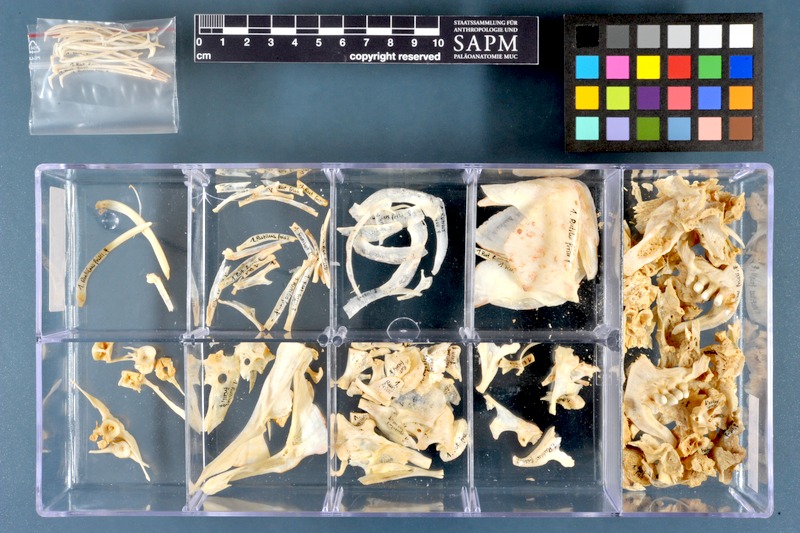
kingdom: Animalia
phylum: Chordata
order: Cypriniformes
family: Cyprinidae
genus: Rutilus
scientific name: Rutilus meidingeri
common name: Perlfisch
